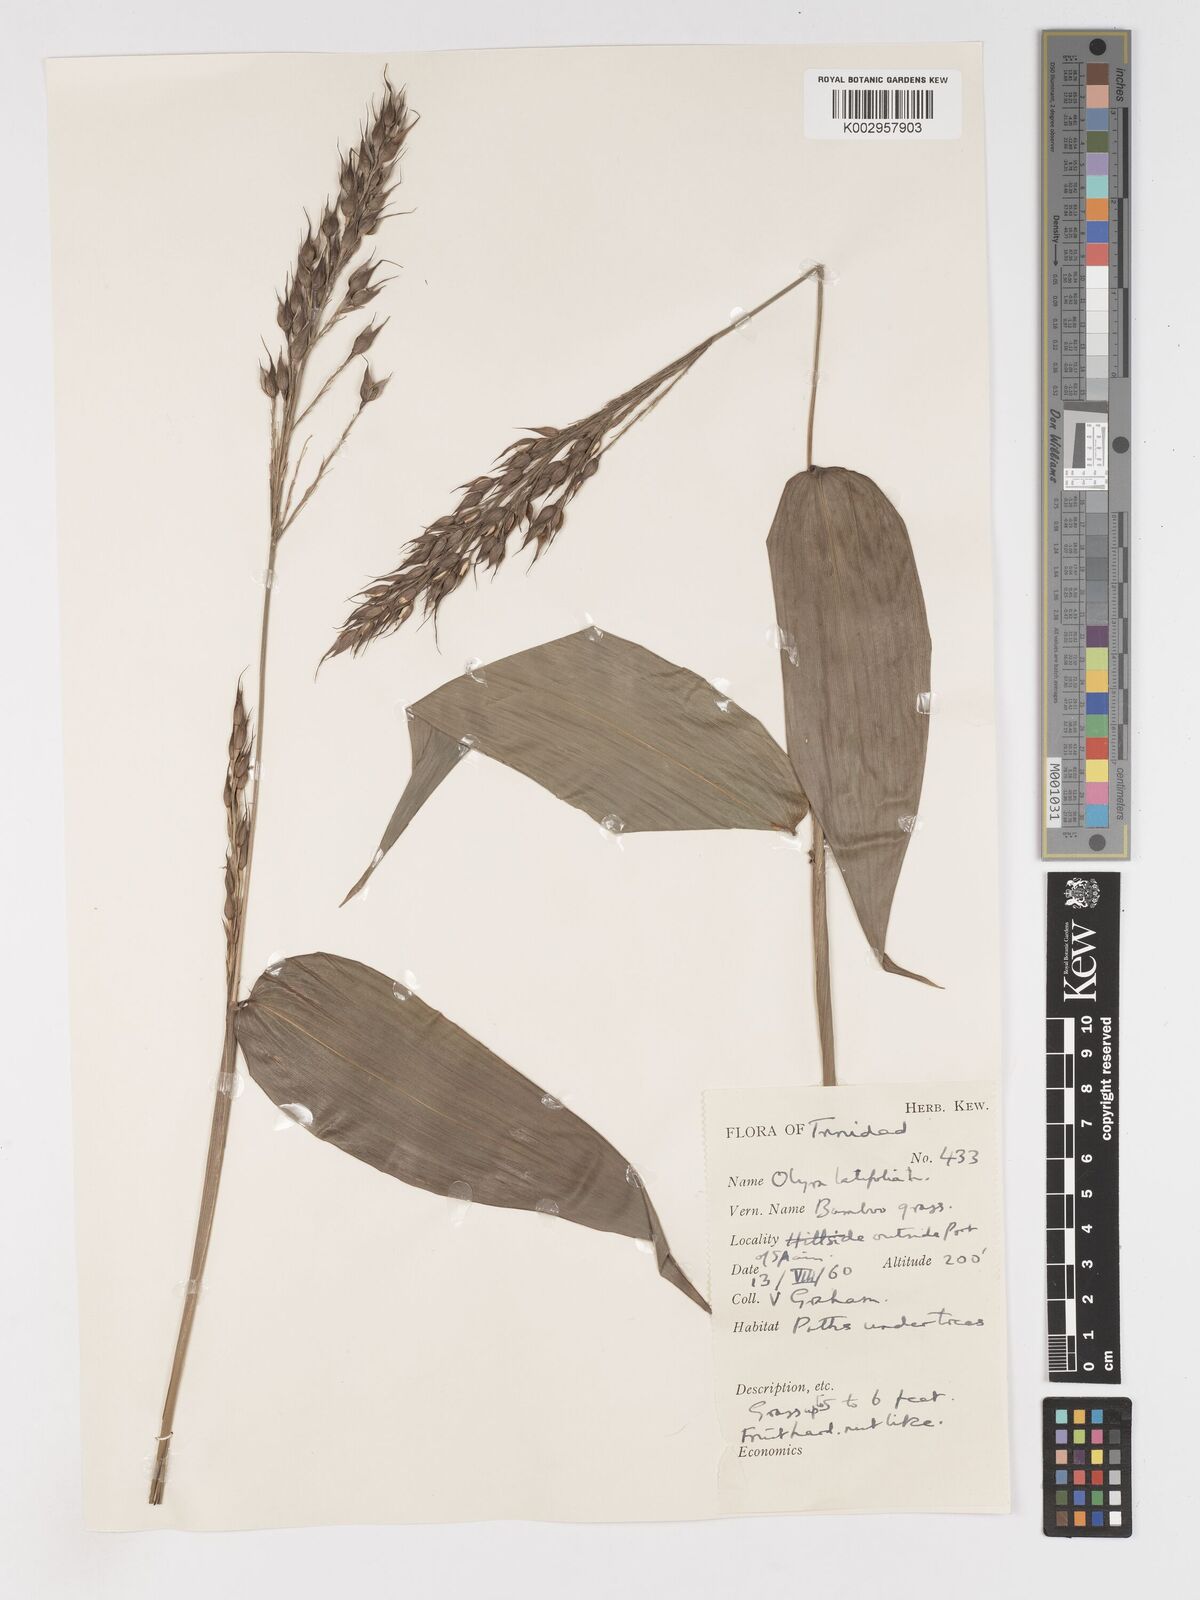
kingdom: Plantae
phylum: Tracheophyta
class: Liliopsida
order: Poales
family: Poaceae
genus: Olyra
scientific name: Olyra latifolia
